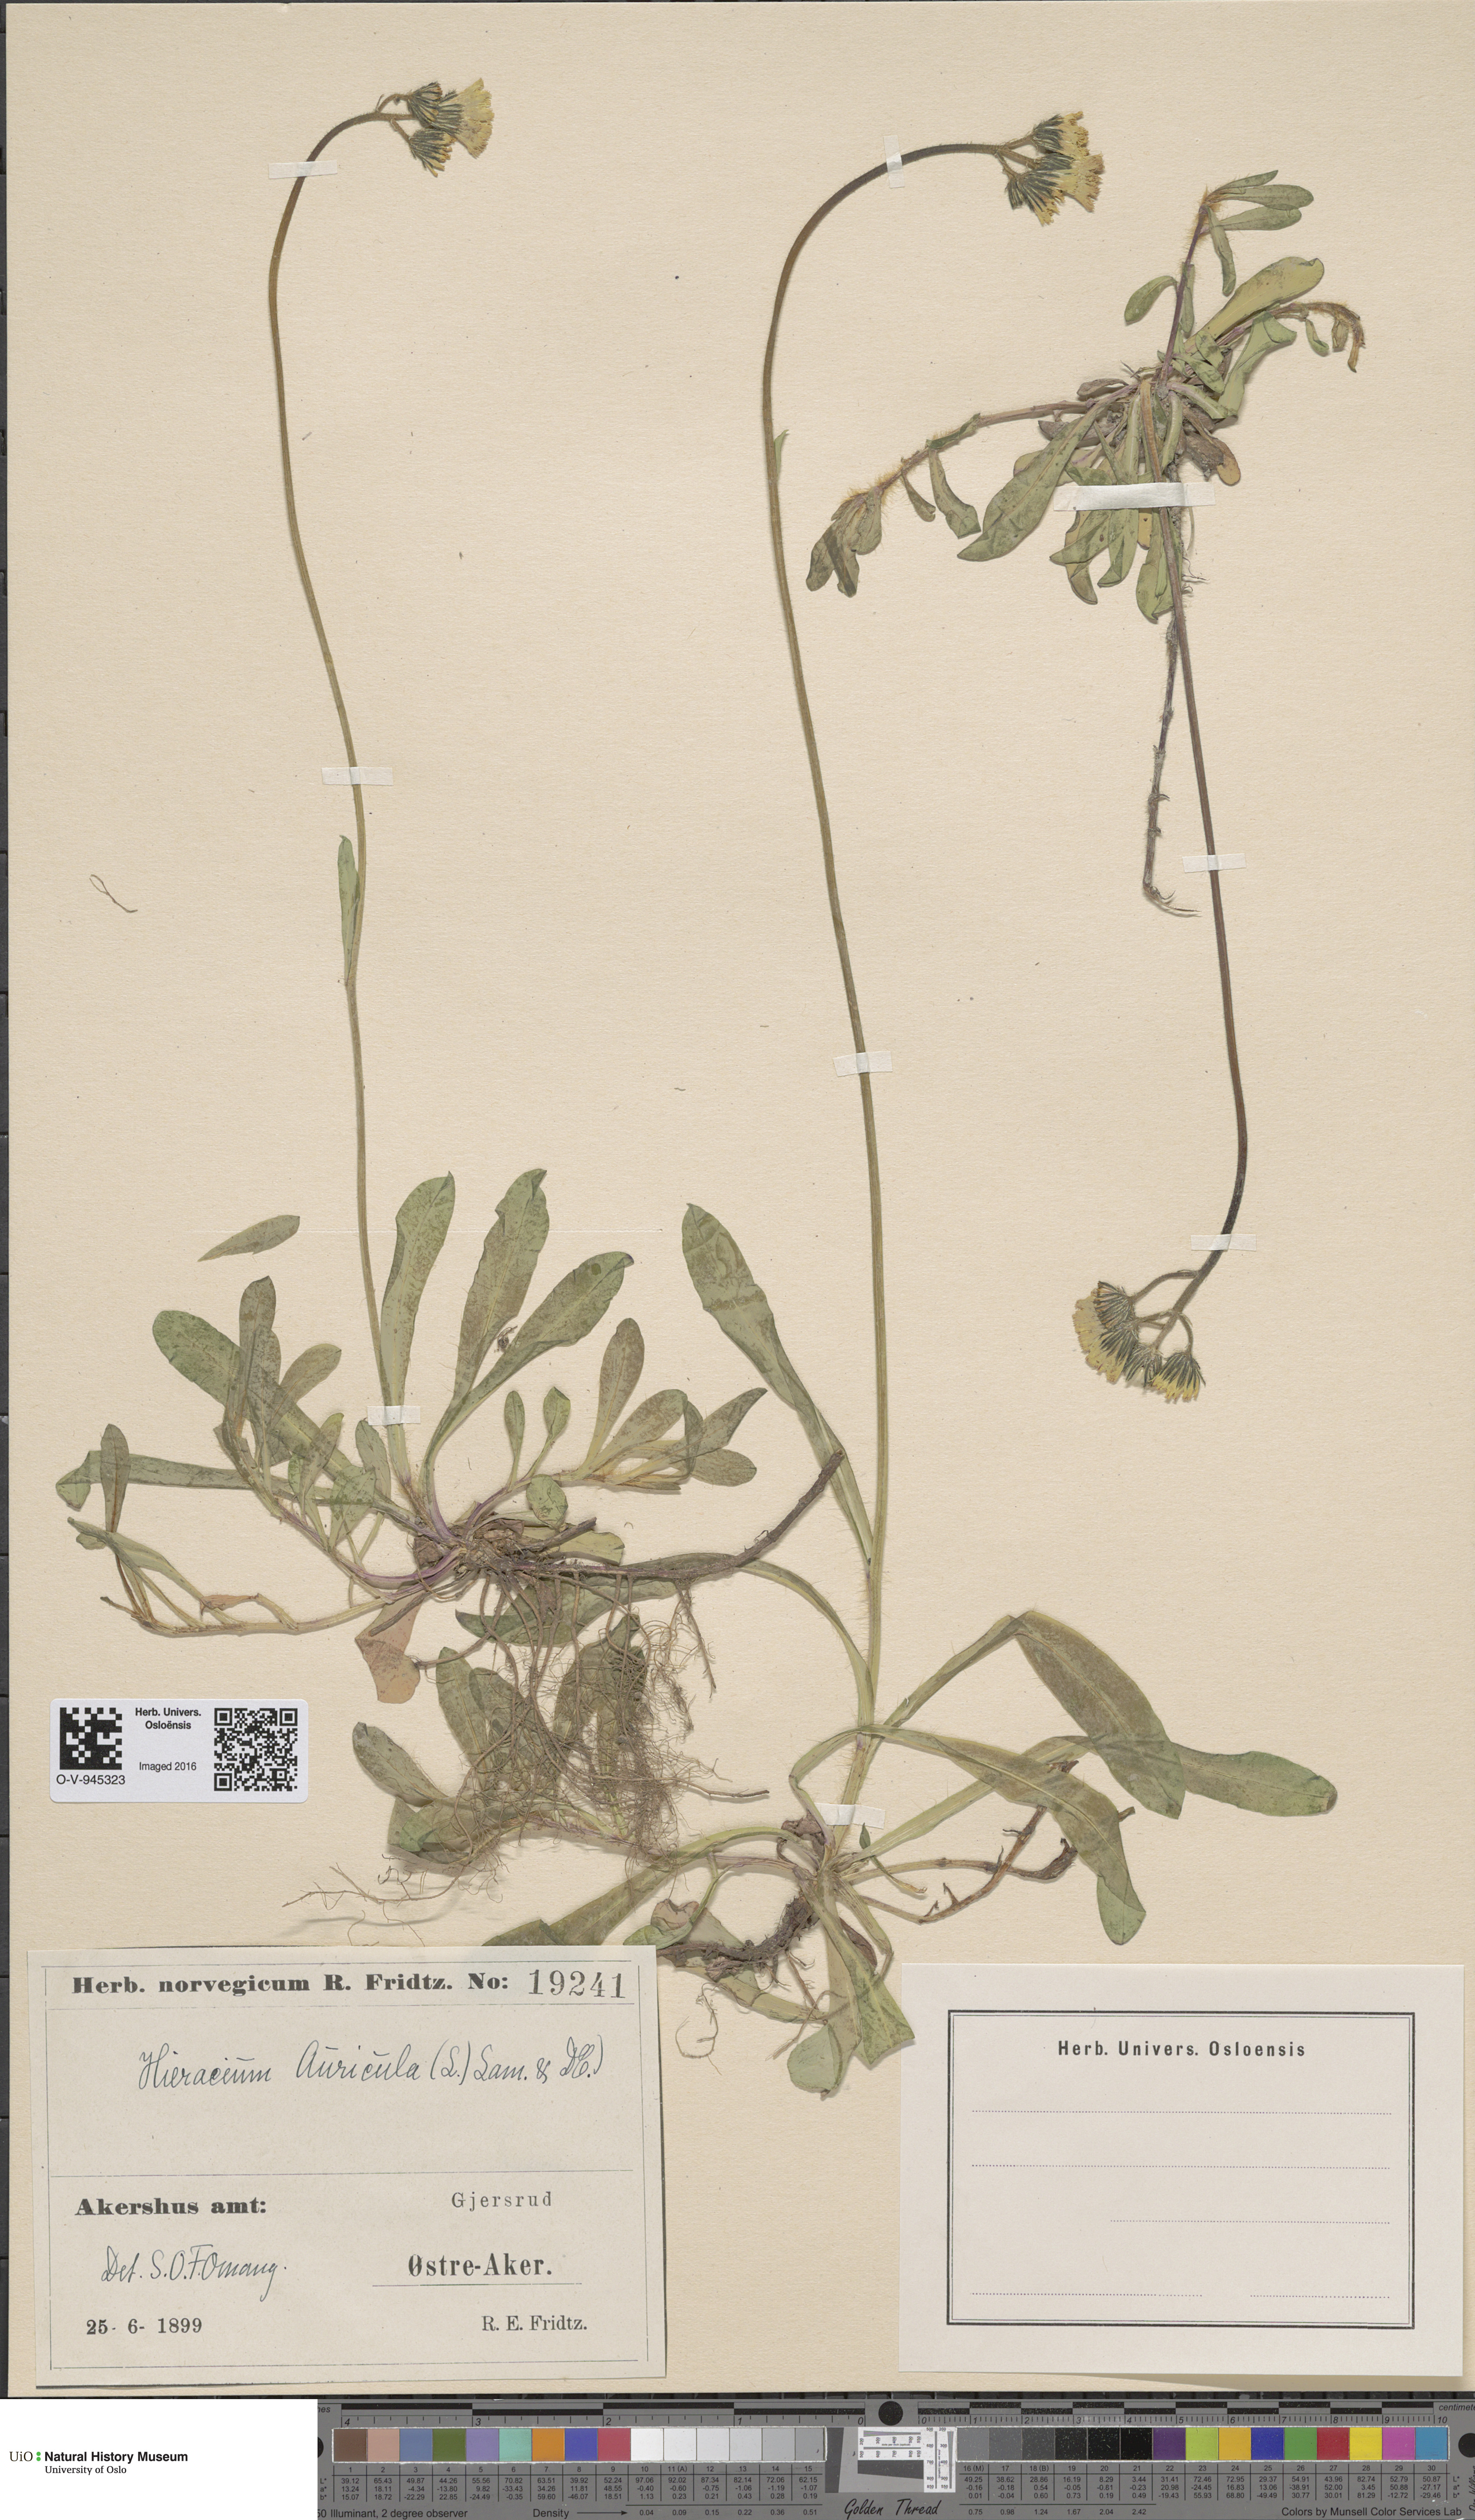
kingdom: Plantae
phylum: Tracheophyta
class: Magnoliopsida
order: Asterales
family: Asteraceae
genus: Pilosella
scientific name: Pilosella lactucella
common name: Glaucous fox-and-cubs
